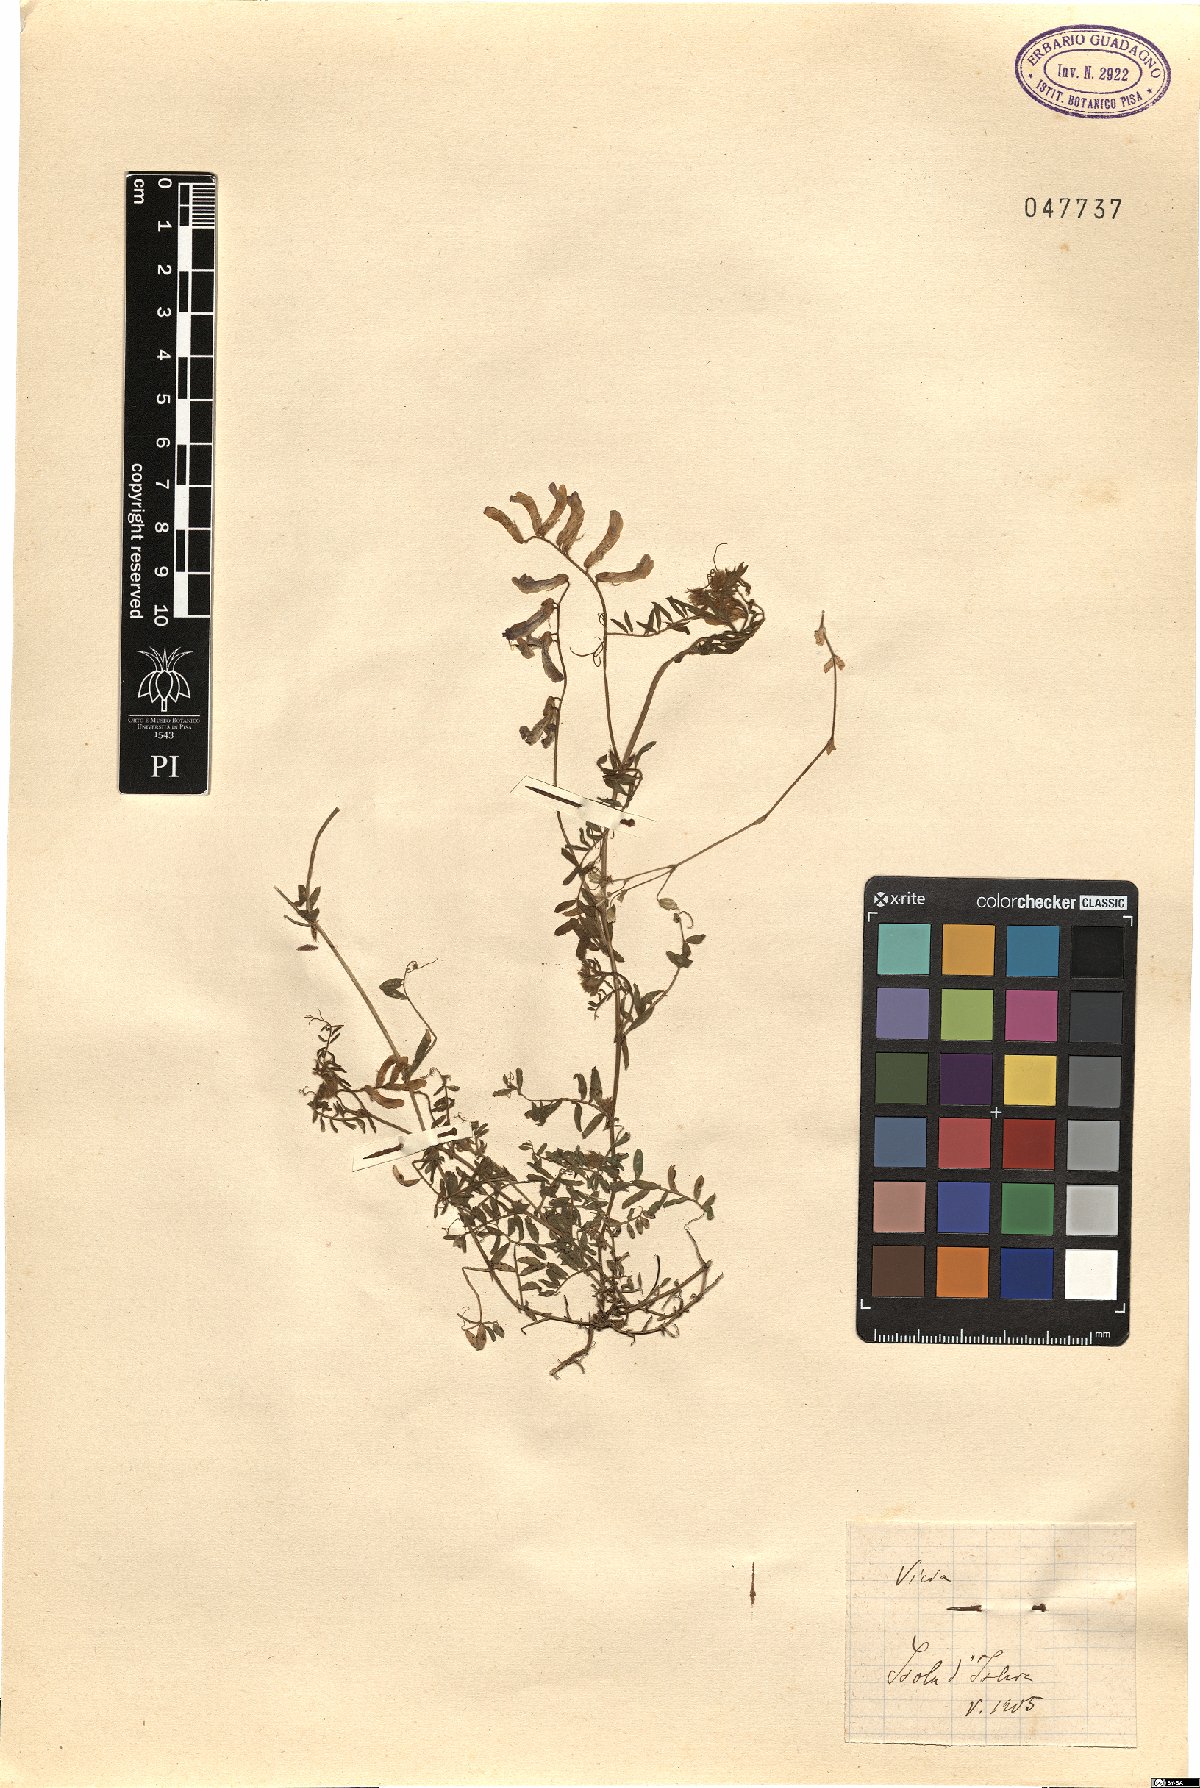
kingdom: Plantae
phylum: Tracheophyta
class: Magnoliopsida
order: Fabales
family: Fabaceae
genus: Vicia
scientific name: Vicia
